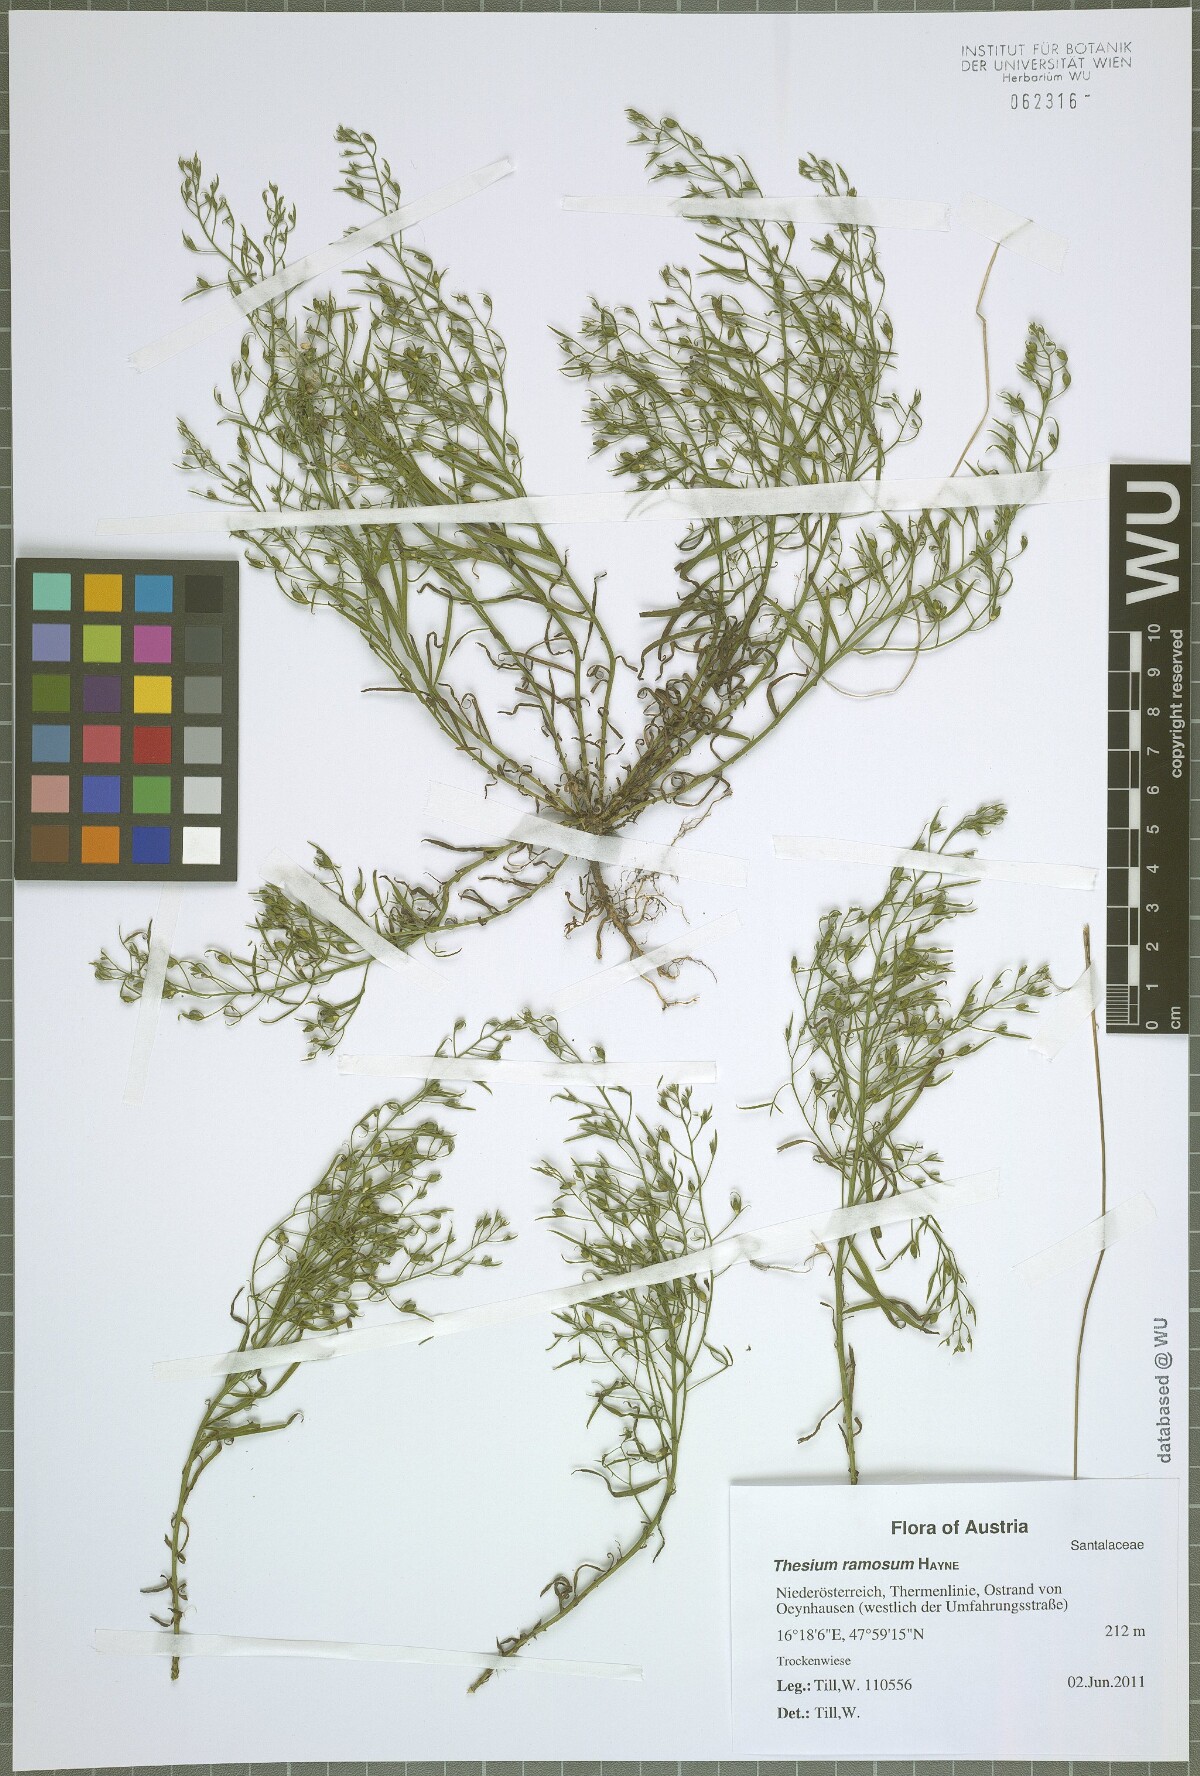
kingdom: Plantae
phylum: Tracheophyta
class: Magnoliopsida
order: Santalales
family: Thesiaceae
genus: Thesium
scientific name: Thesium ramosum
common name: Field thesium
